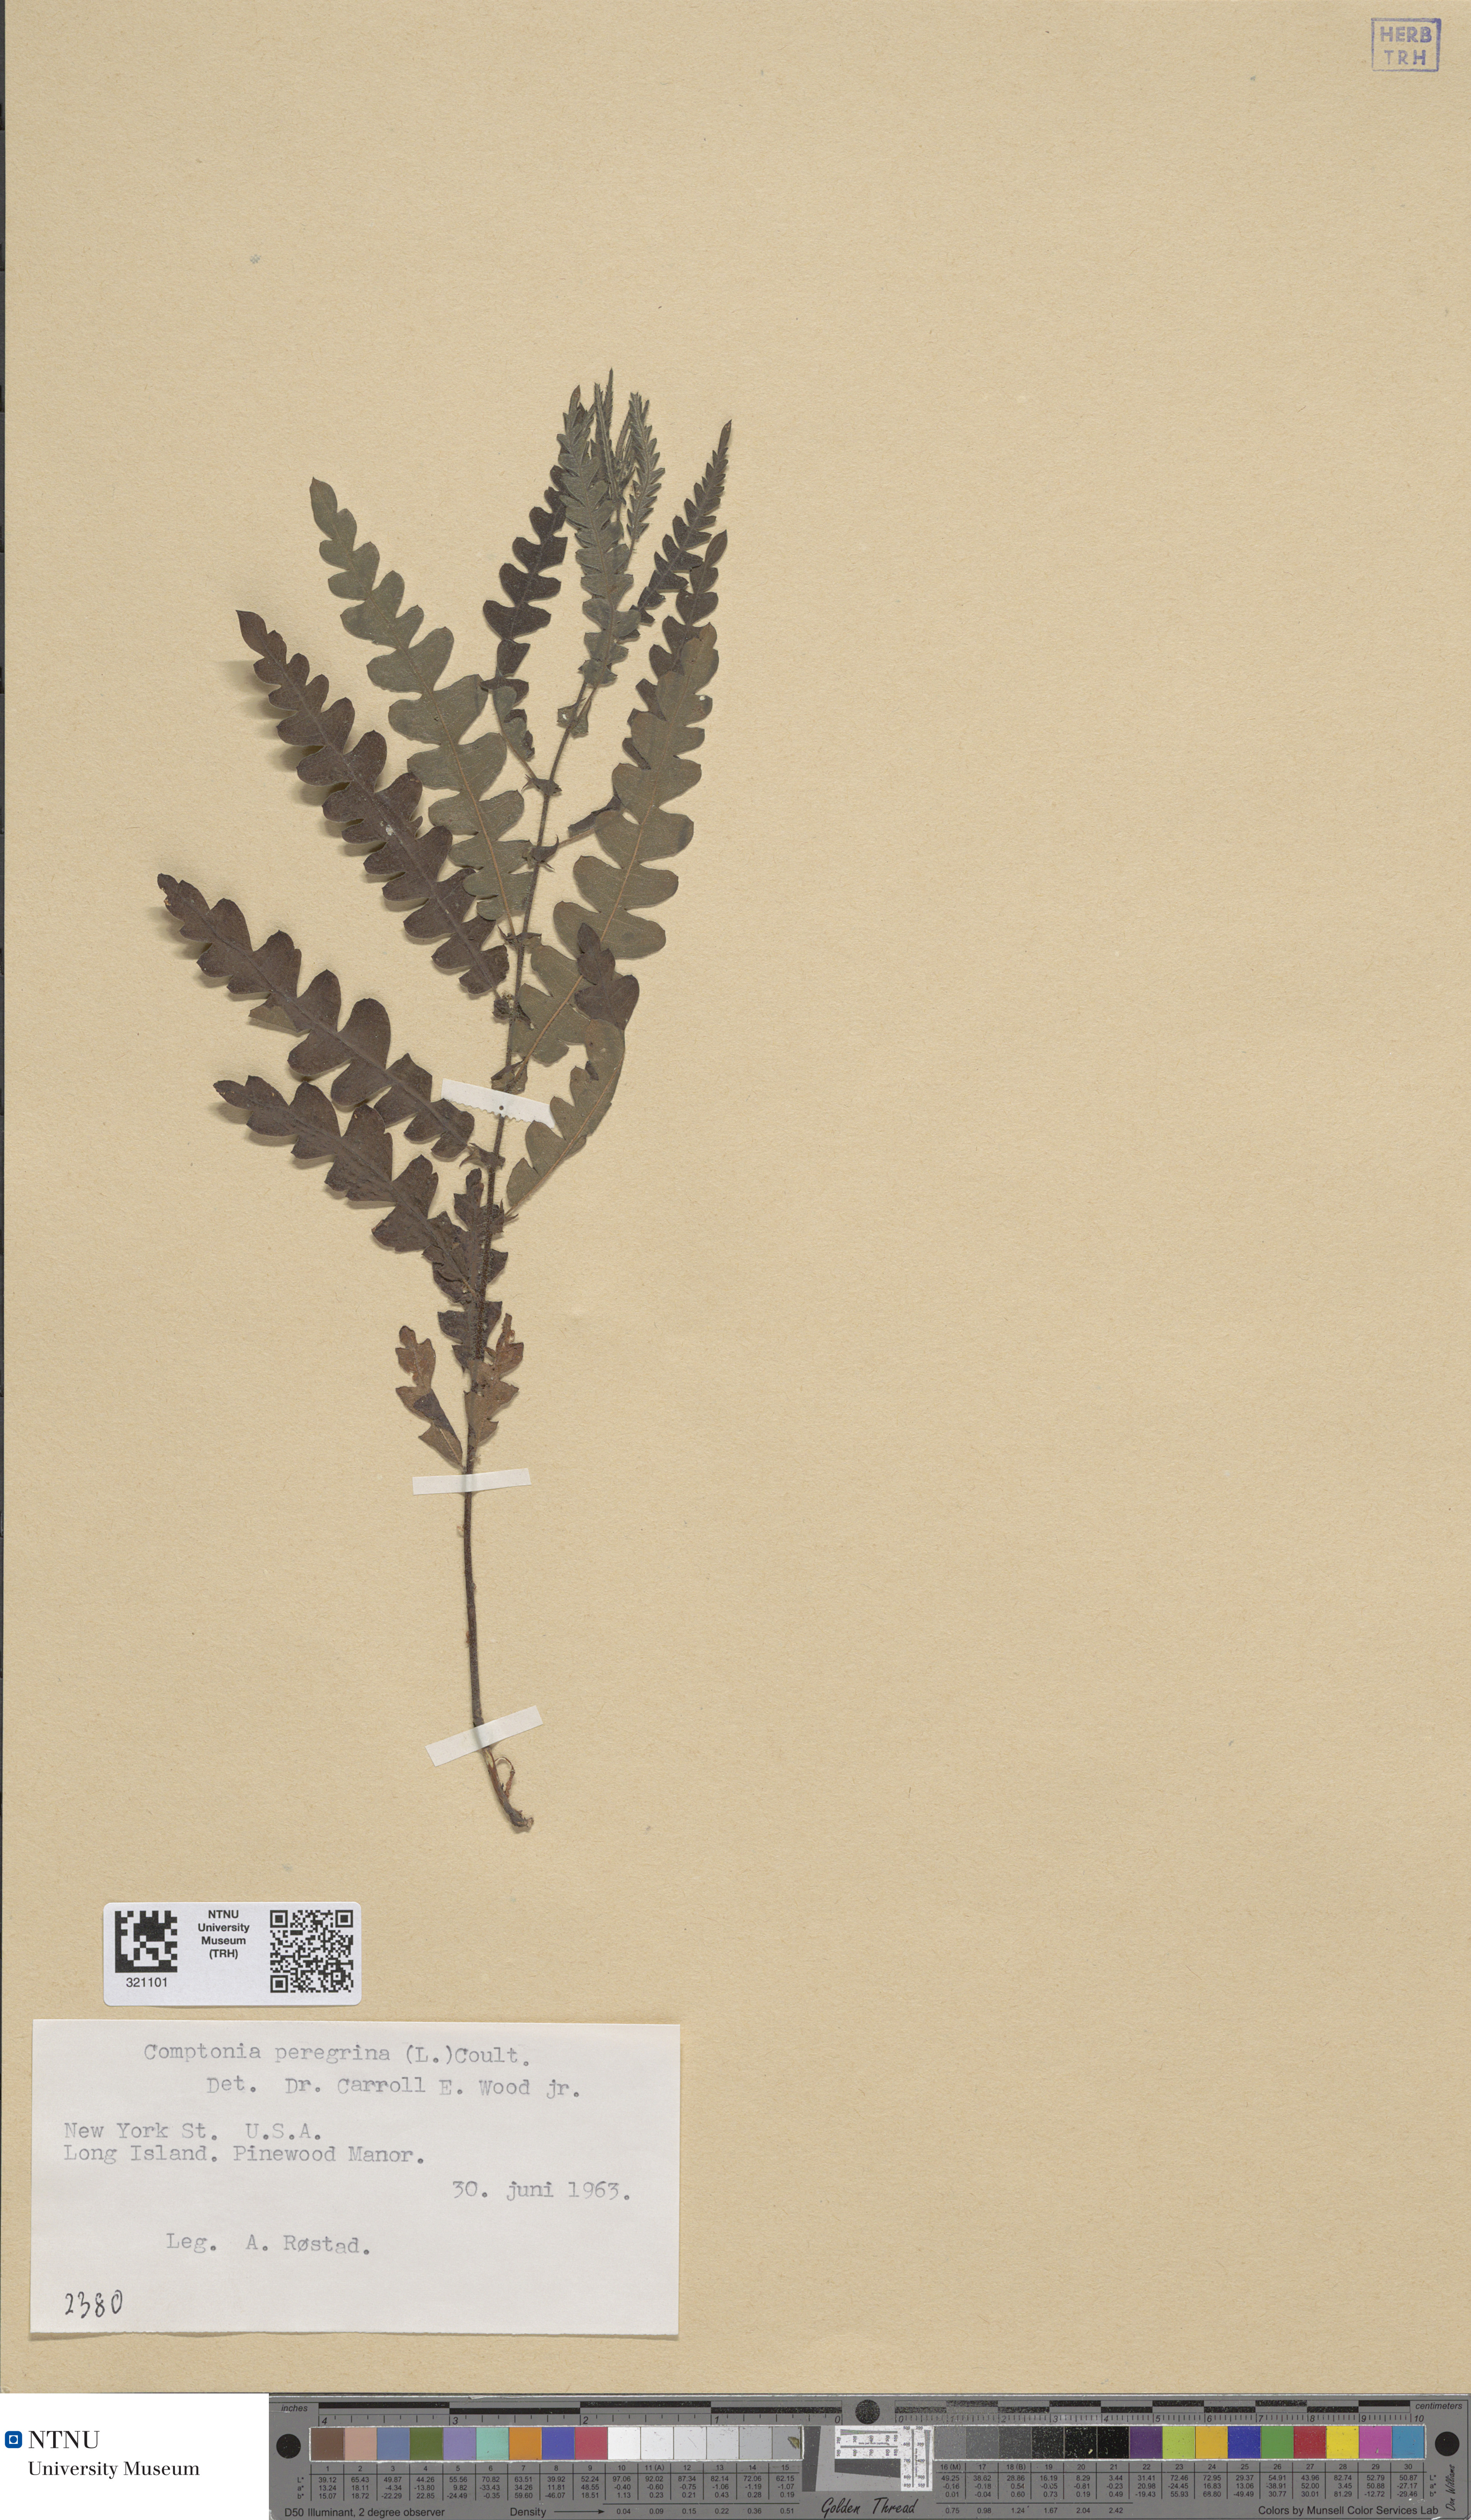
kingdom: Plantae
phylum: Tracheophyta
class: Magnoliopsida
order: Fagales
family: Myricaceae
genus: Comptonia
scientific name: Comptonia peregrina
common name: Sweet-fern
